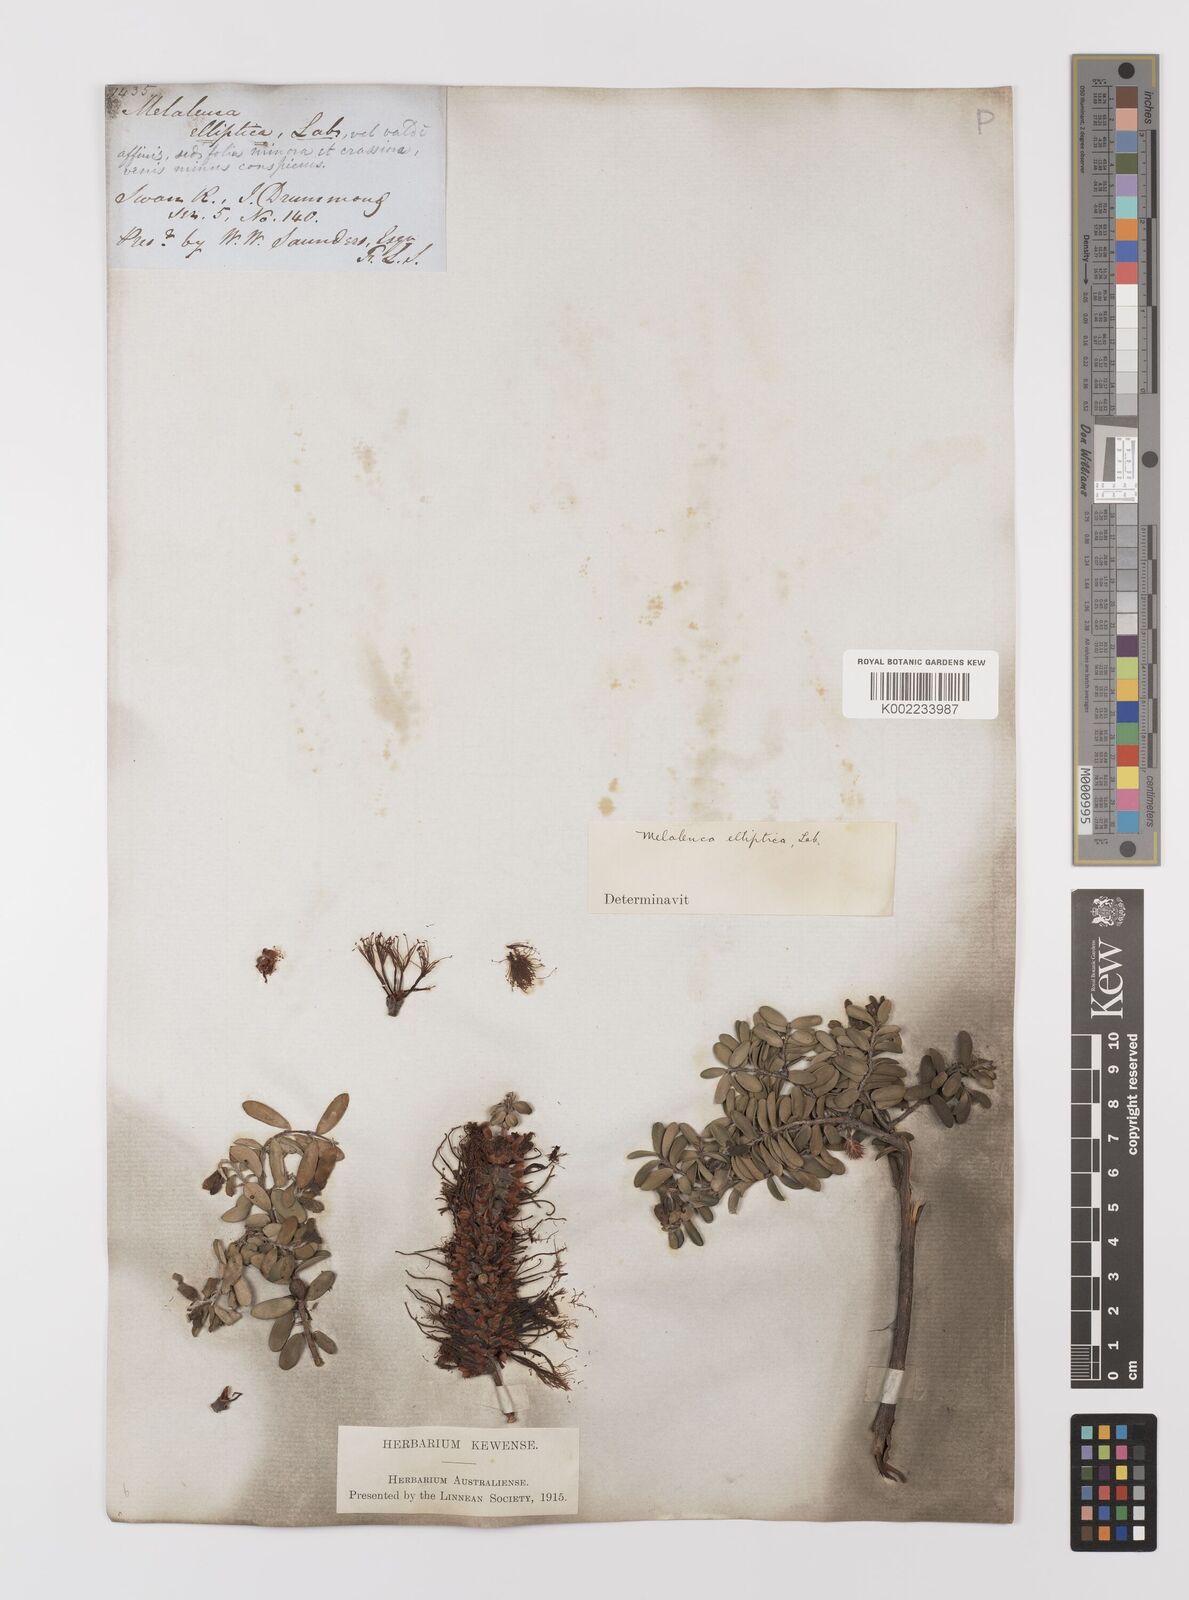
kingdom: Plantae
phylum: Tracheophyta
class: Magnoliopsida
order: Myrtales
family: Myrtaceae
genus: Melaleuca
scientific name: Melaleuca elliptica
